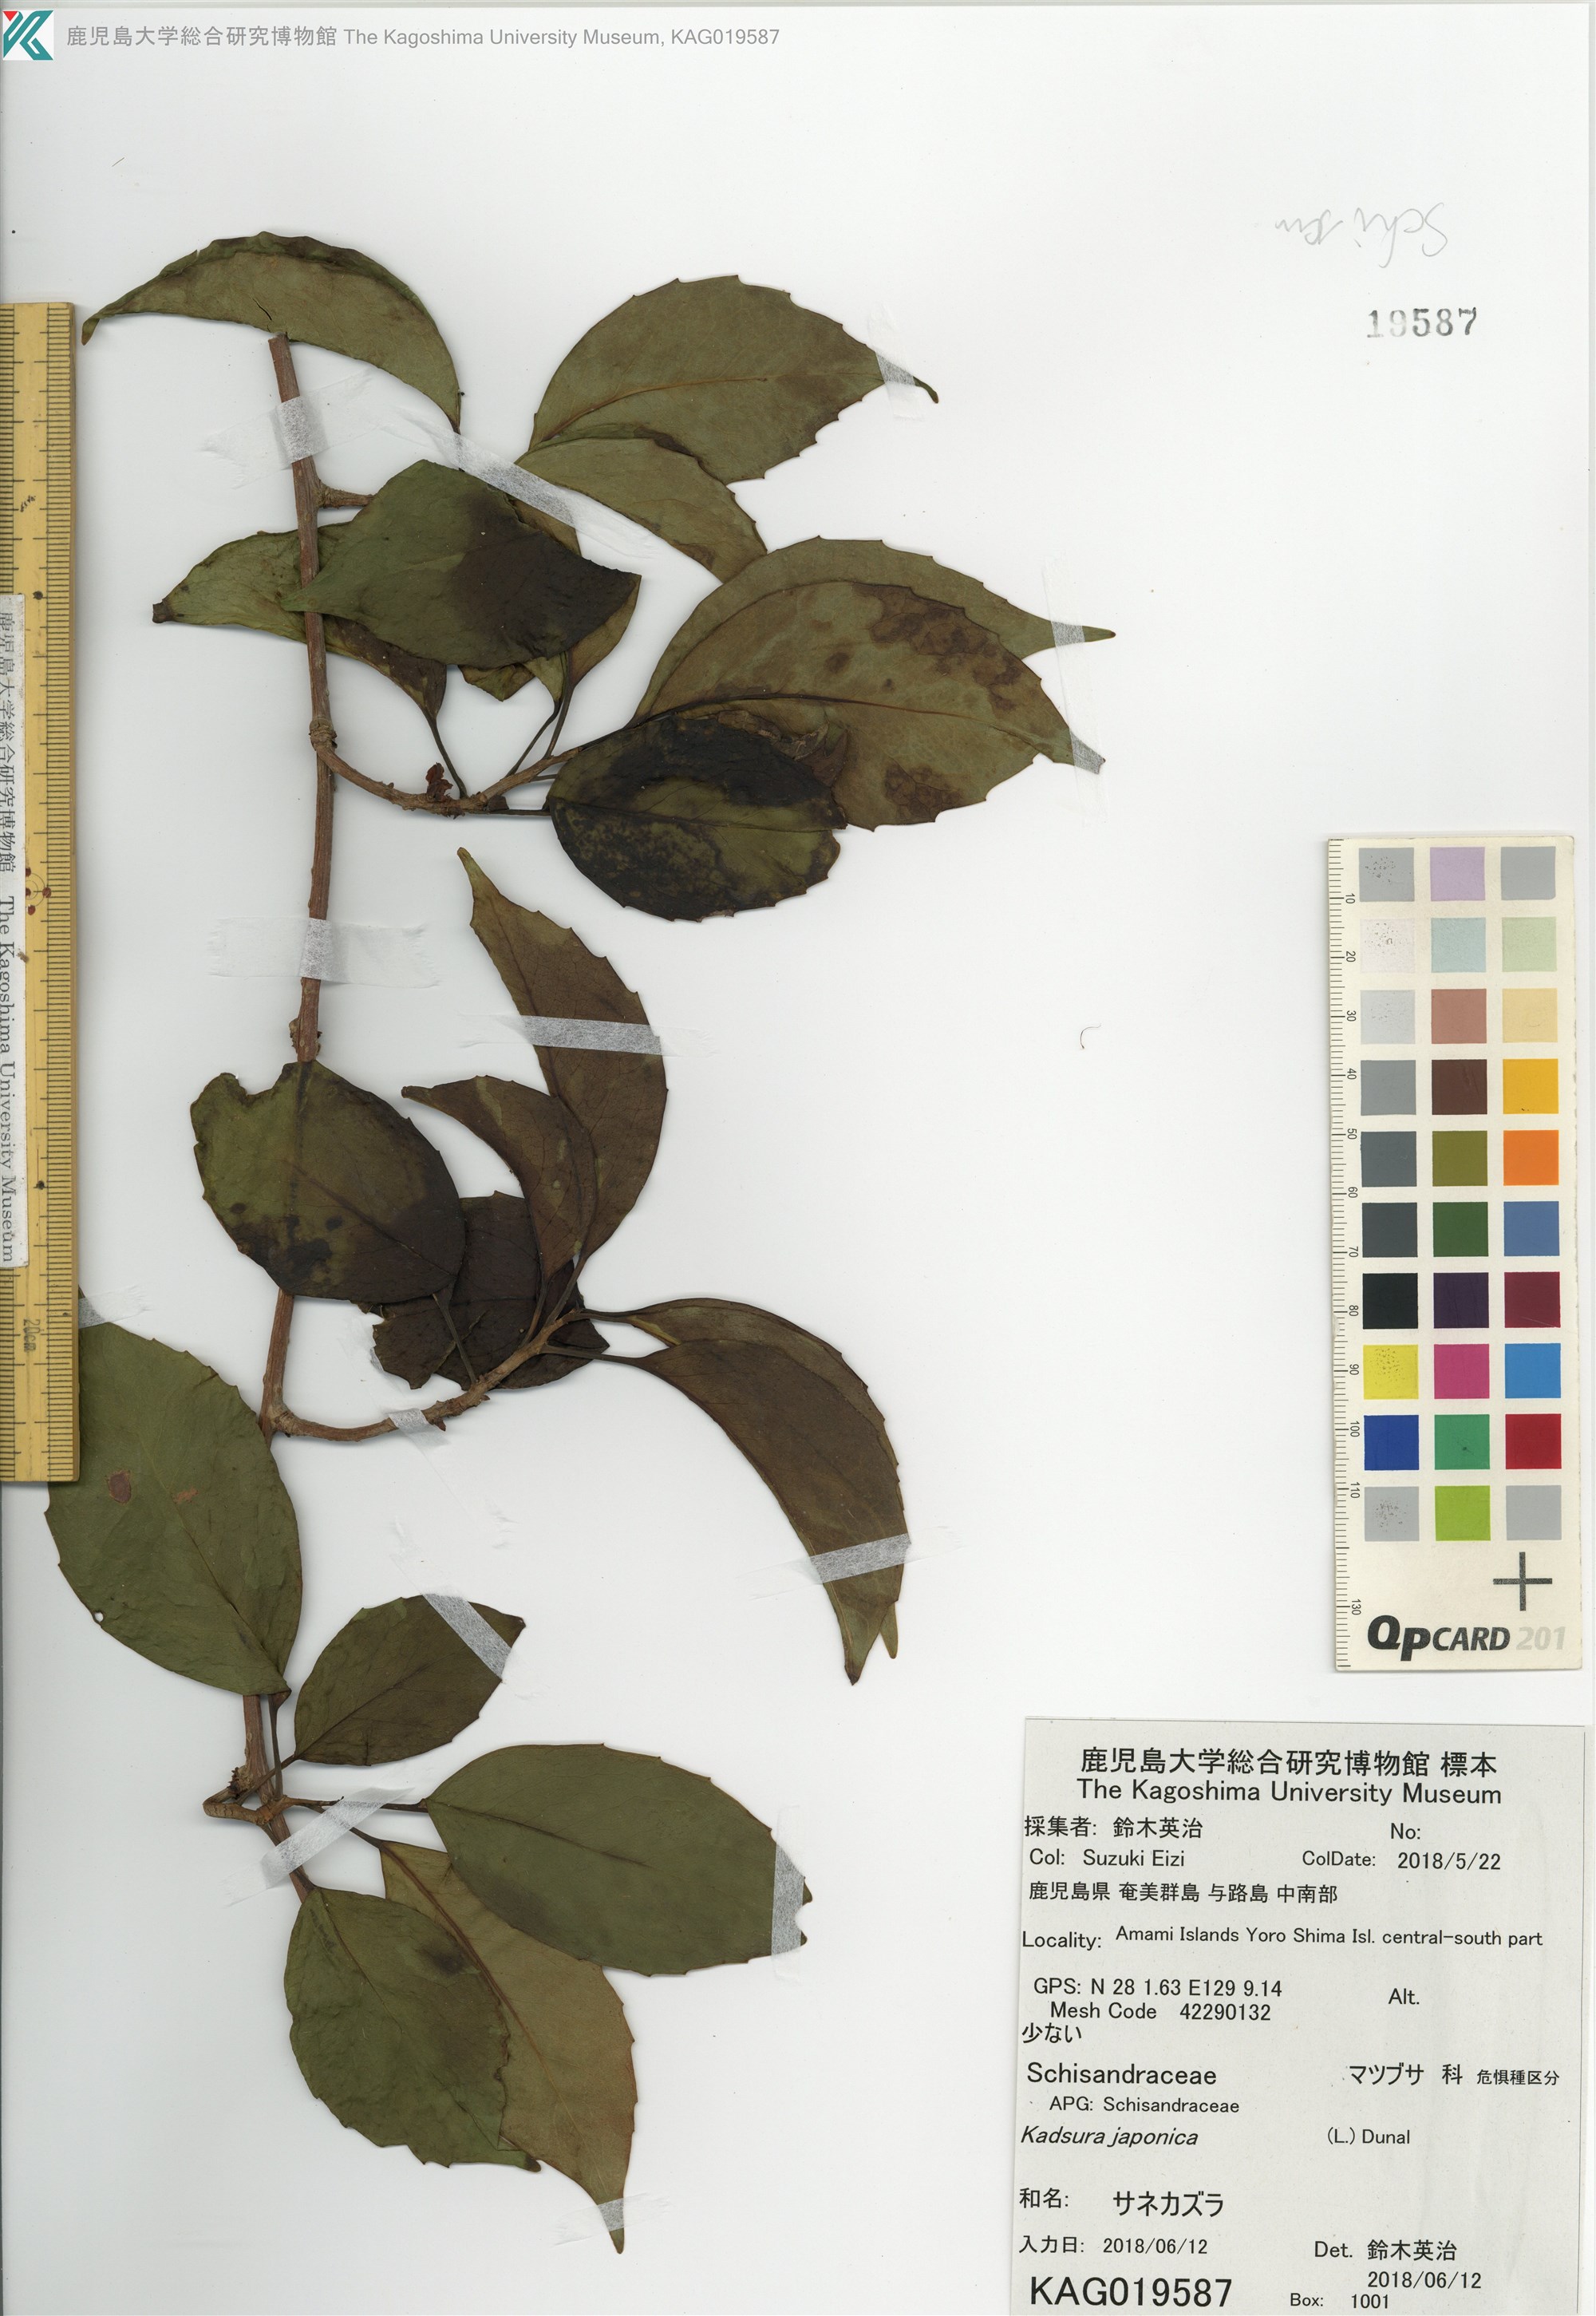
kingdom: Plantae
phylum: Tracheophyta
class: Magnoliopsida
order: Austrobaileyales
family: Schisandraceae
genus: Kadsura
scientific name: Kadsura japonica
